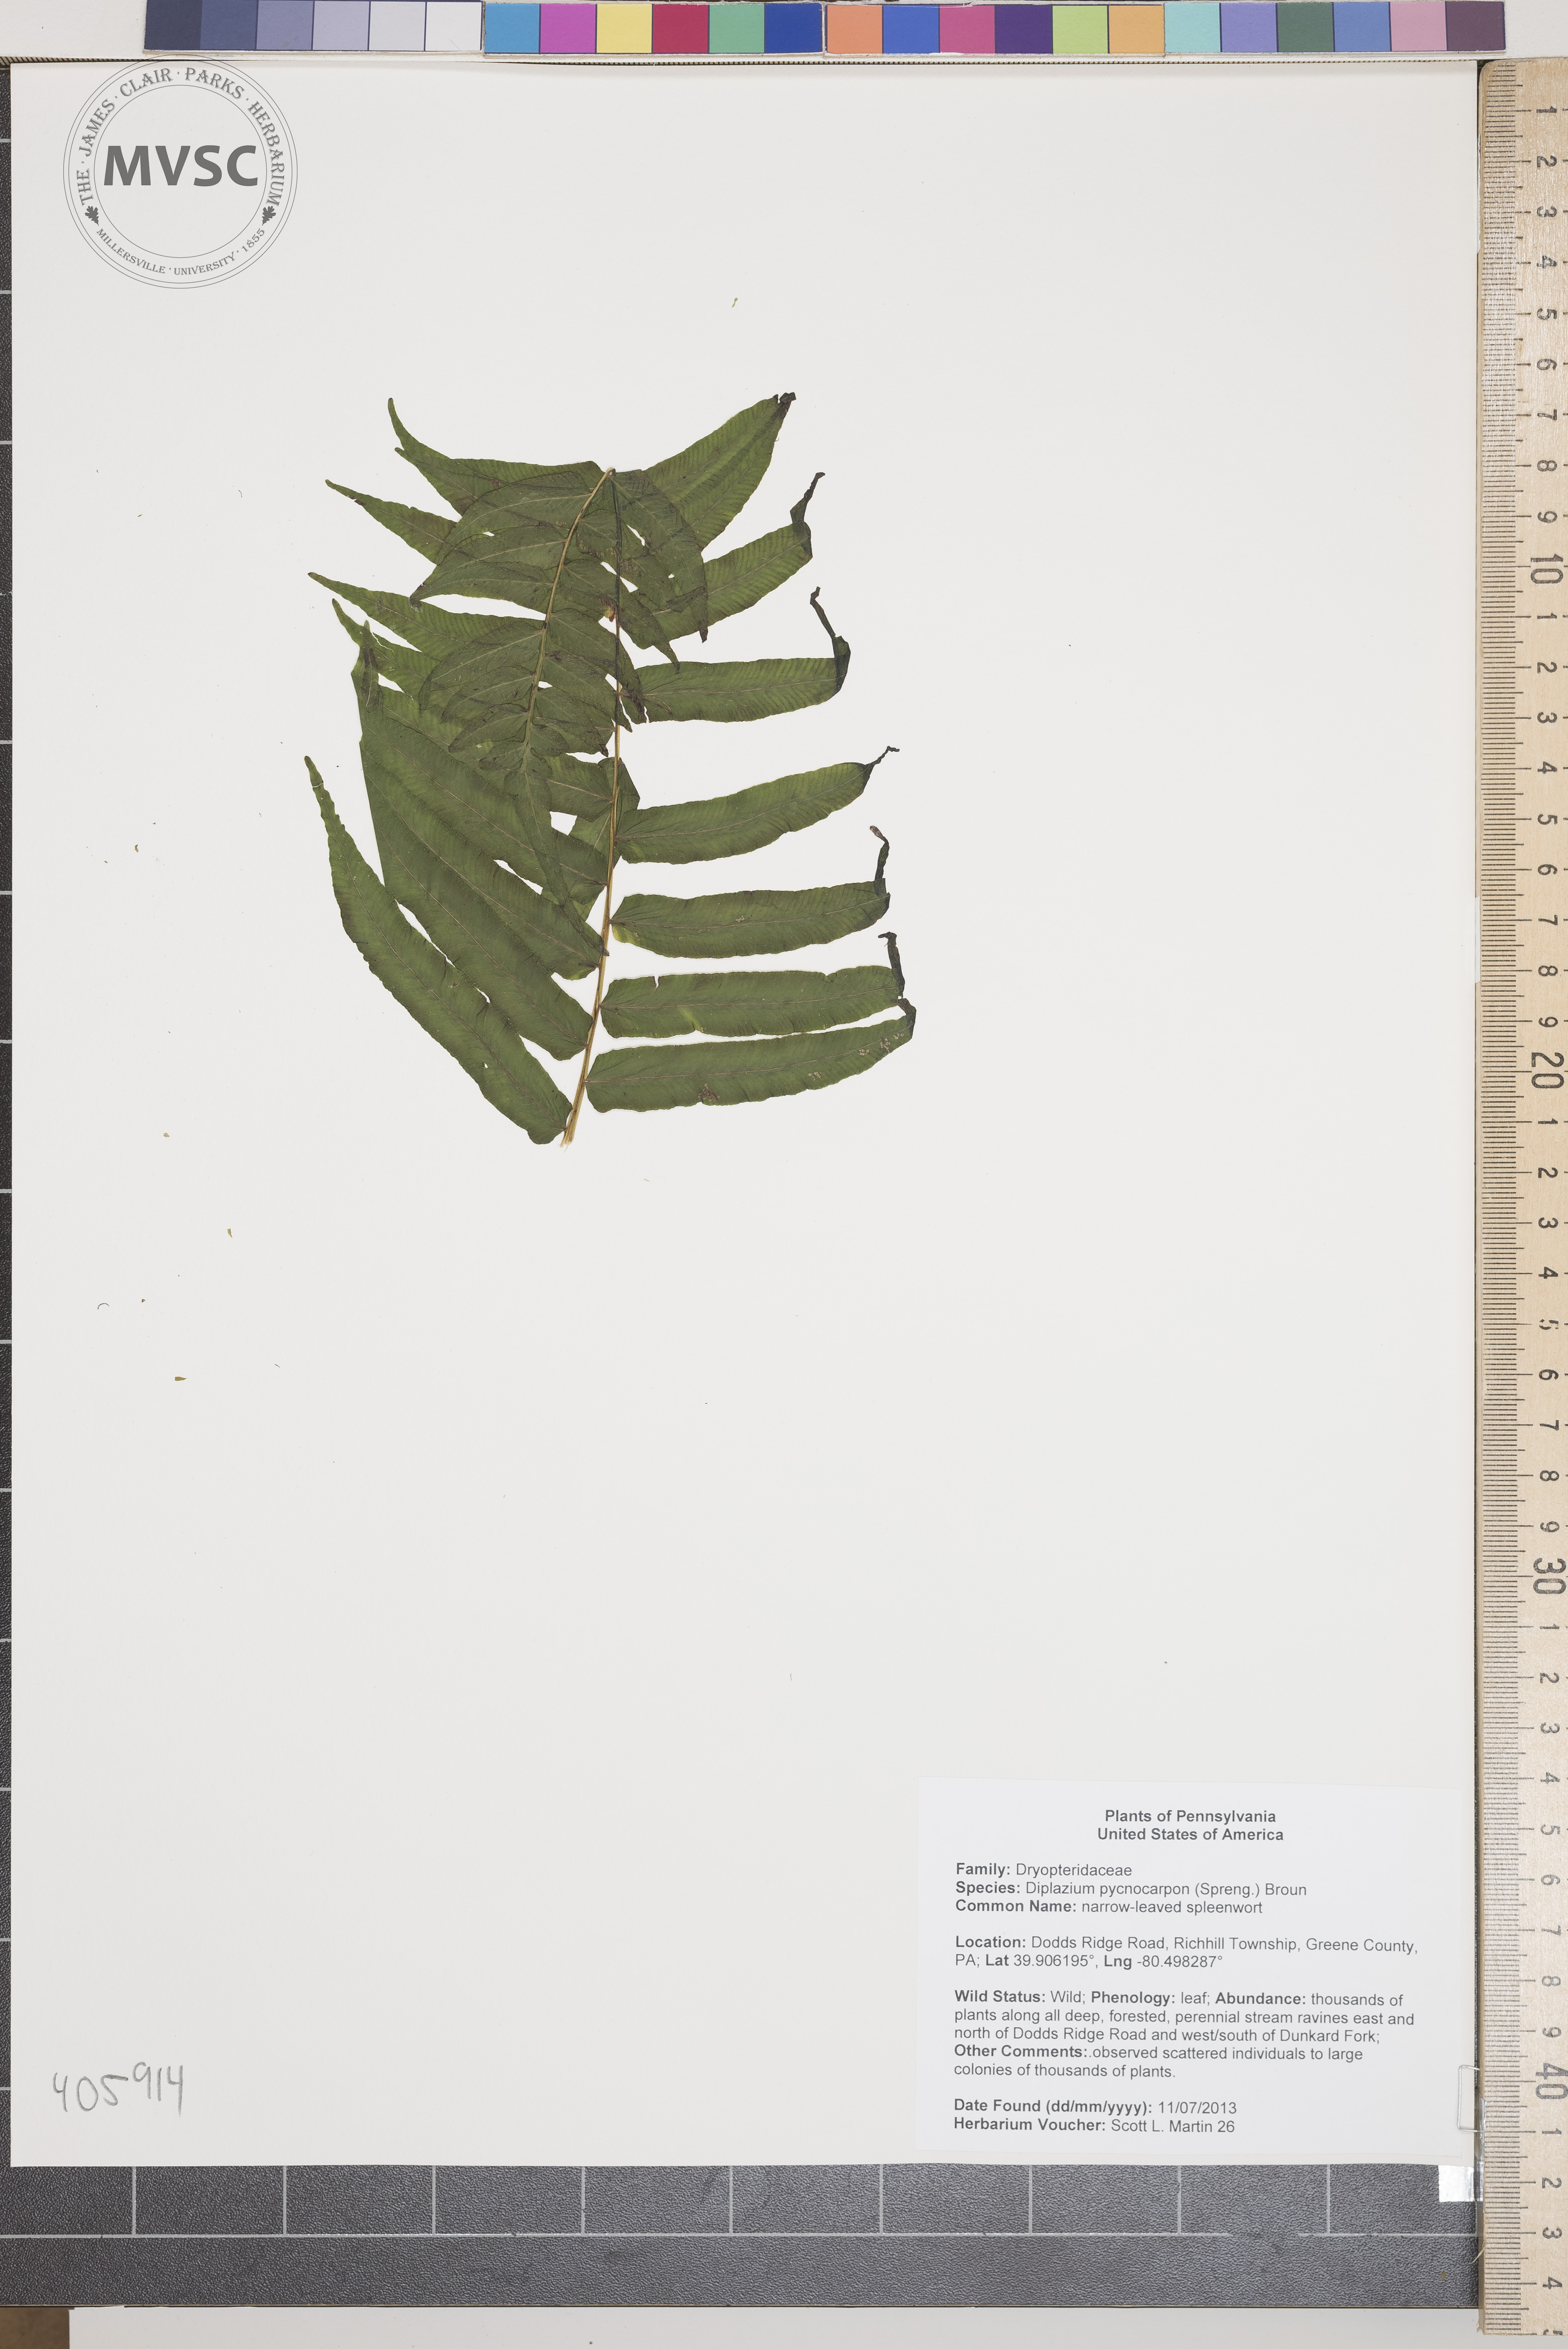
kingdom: Plantae
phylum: Tracheophyta
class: Polypodiopsida
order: Polypodiales
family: Diplaziopsidaceae
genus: Homalosorus
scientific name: Homalosorus pycnocarpos
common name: narrow-leaved spleenwort
